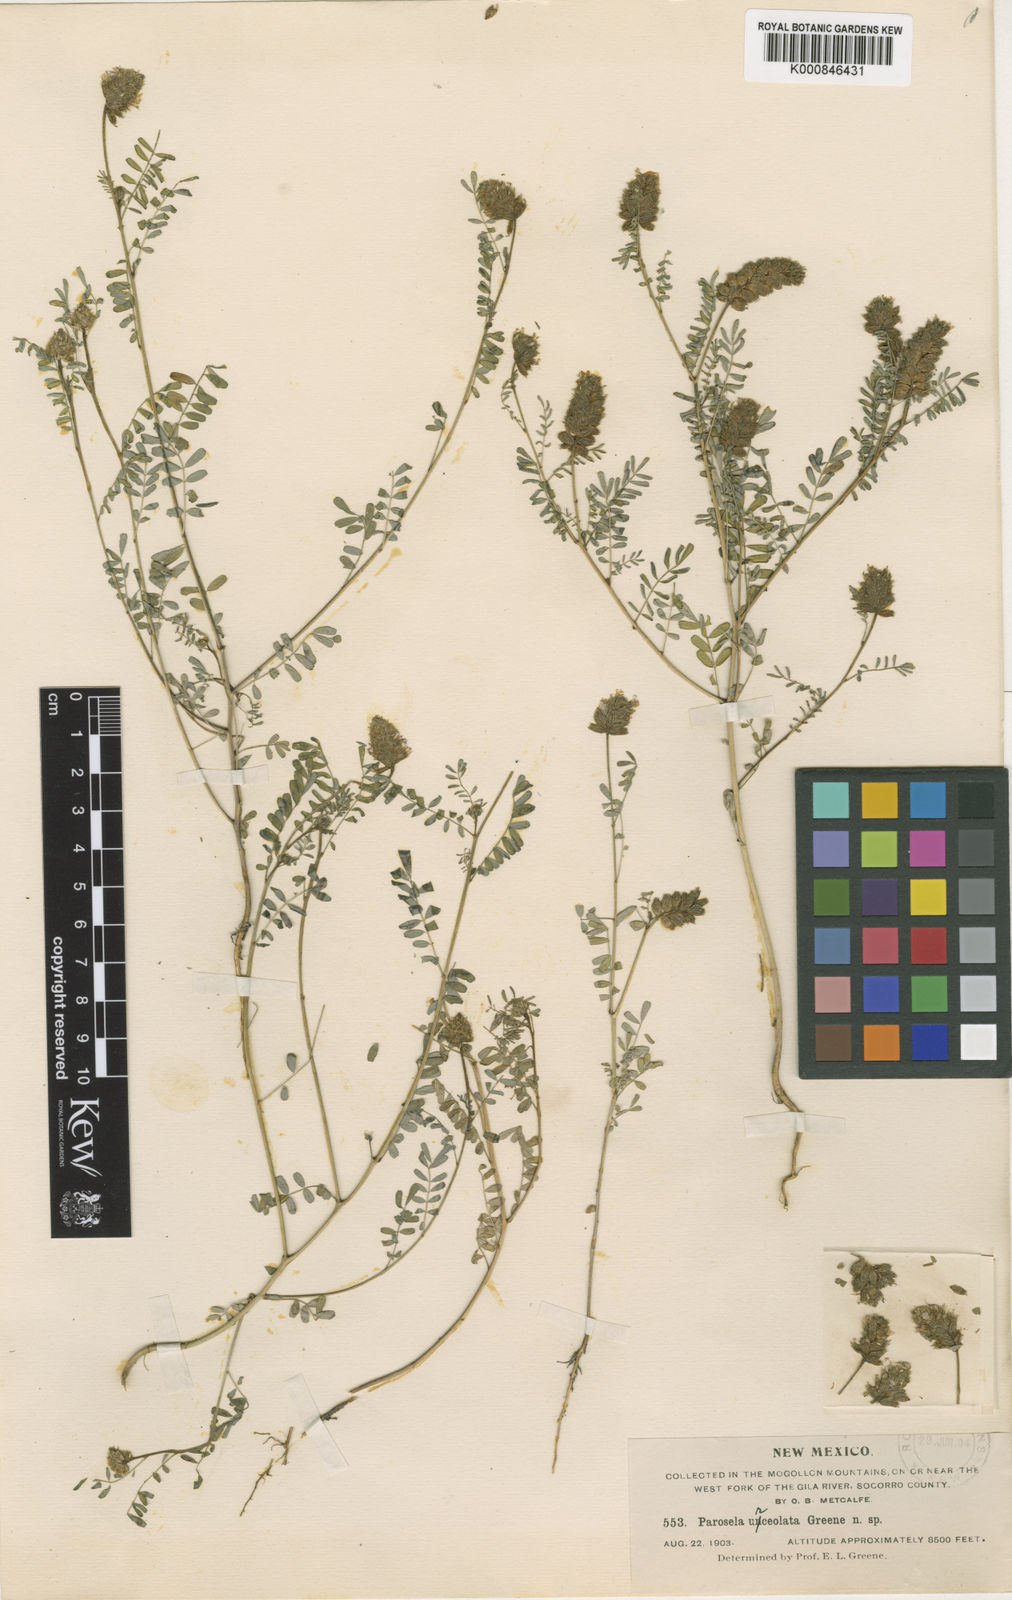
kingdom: Plantae
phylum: Tracheophyta
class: Magnoliopsida
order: Fabales
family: Fabaceae
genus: Dalea
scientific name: Dalea urceolata
